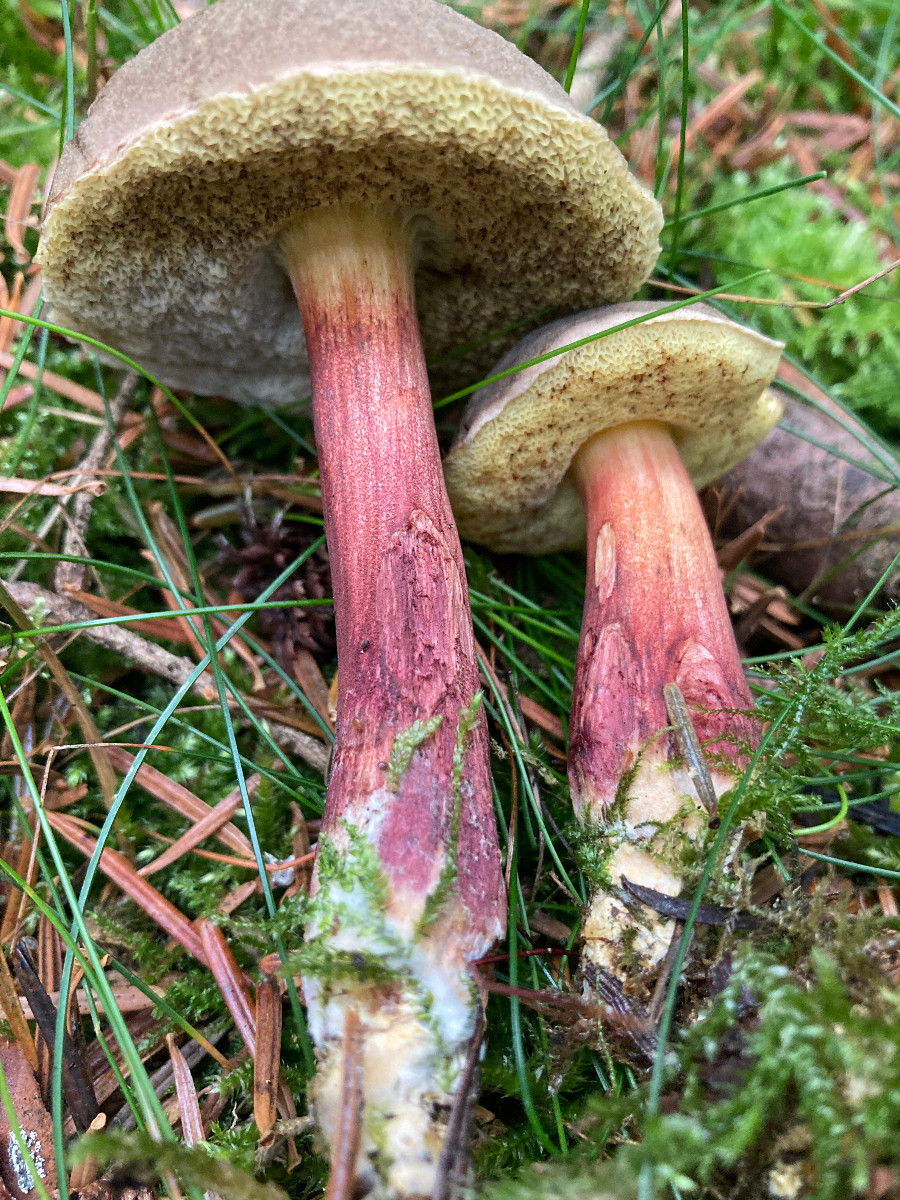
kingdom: Fungi
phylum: Basidiomycota
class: Agaricomycetes
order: Boletales
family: Boletaceae
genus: Xerocomellus
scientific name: Xerocomellus chrysenteron
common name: rødsprukken rørhat
